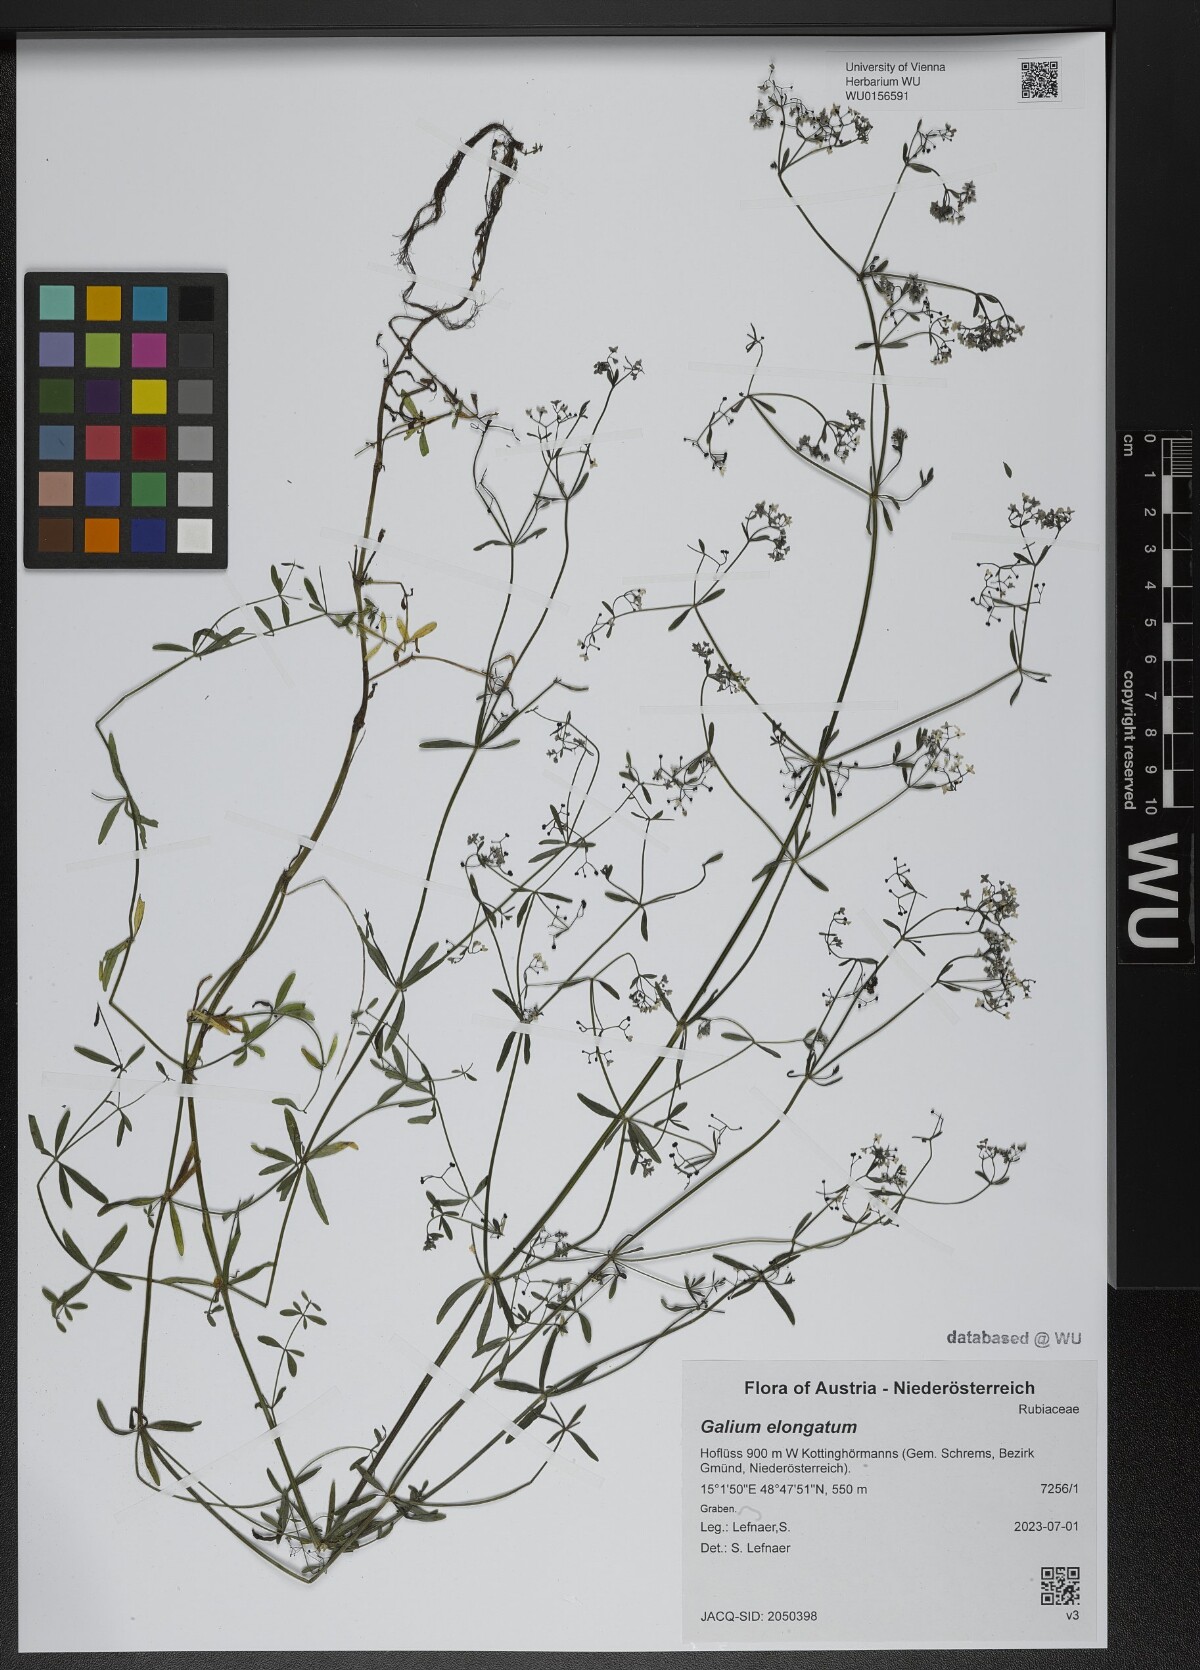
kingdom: Plantae
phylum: Tracheophyta
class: Magnoliopsida
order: Gentianales
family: Rubiaceae
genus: Galium
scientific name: Galium elongatum
